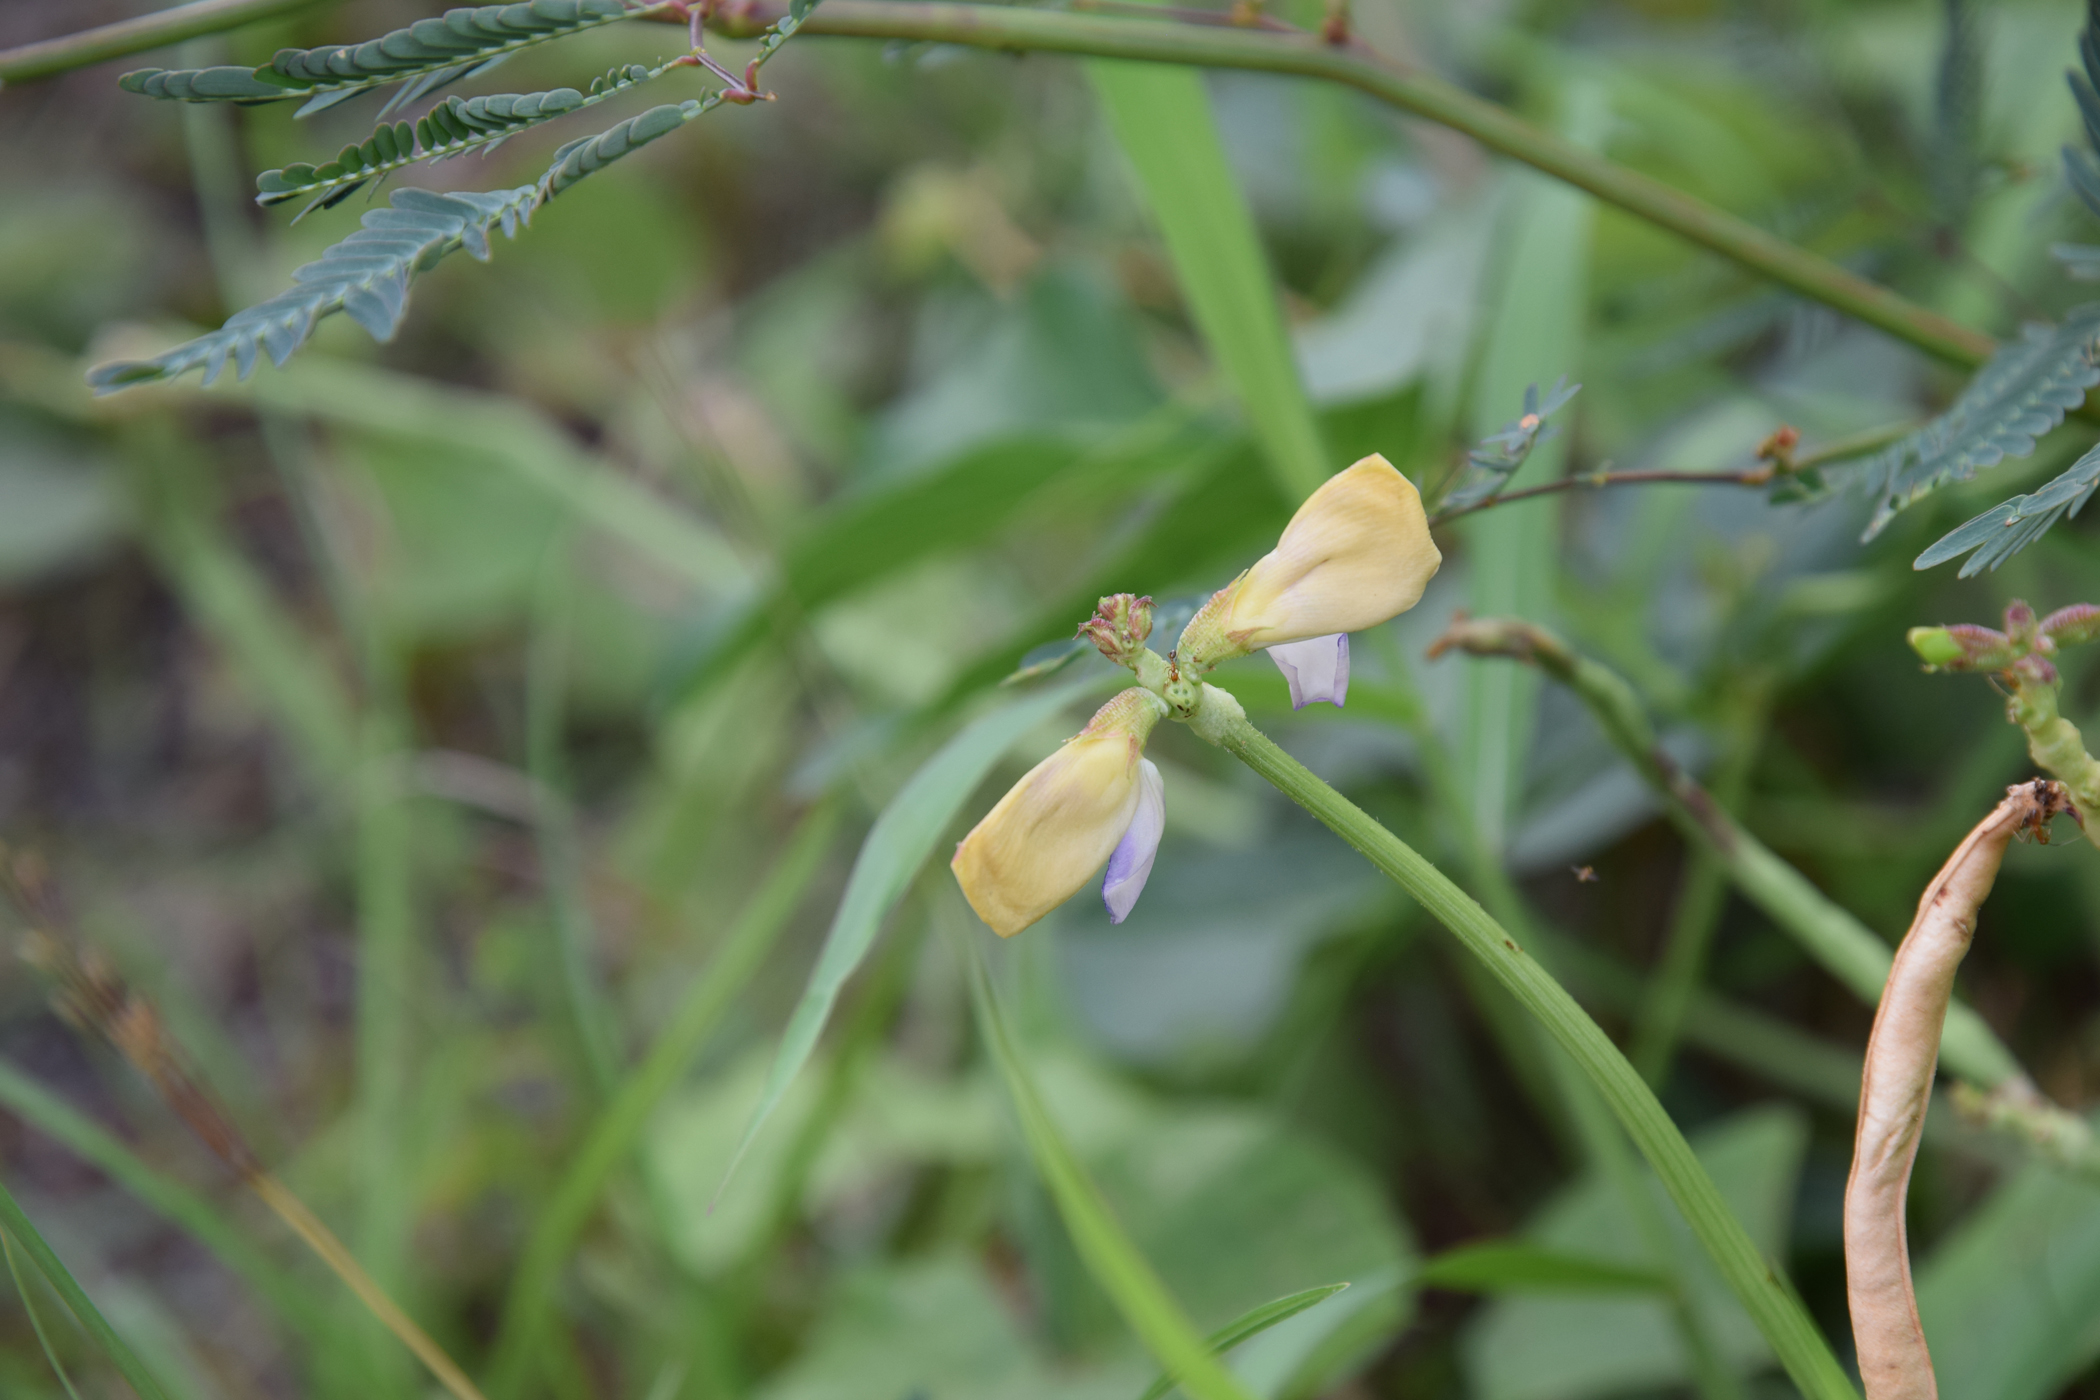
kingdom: Plantae
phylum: Tracheophyta
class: Magnoliopsida
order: Fabales
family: Fabaceae
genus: Vigna
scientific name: Vigna unguiculata
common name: Cowpea
